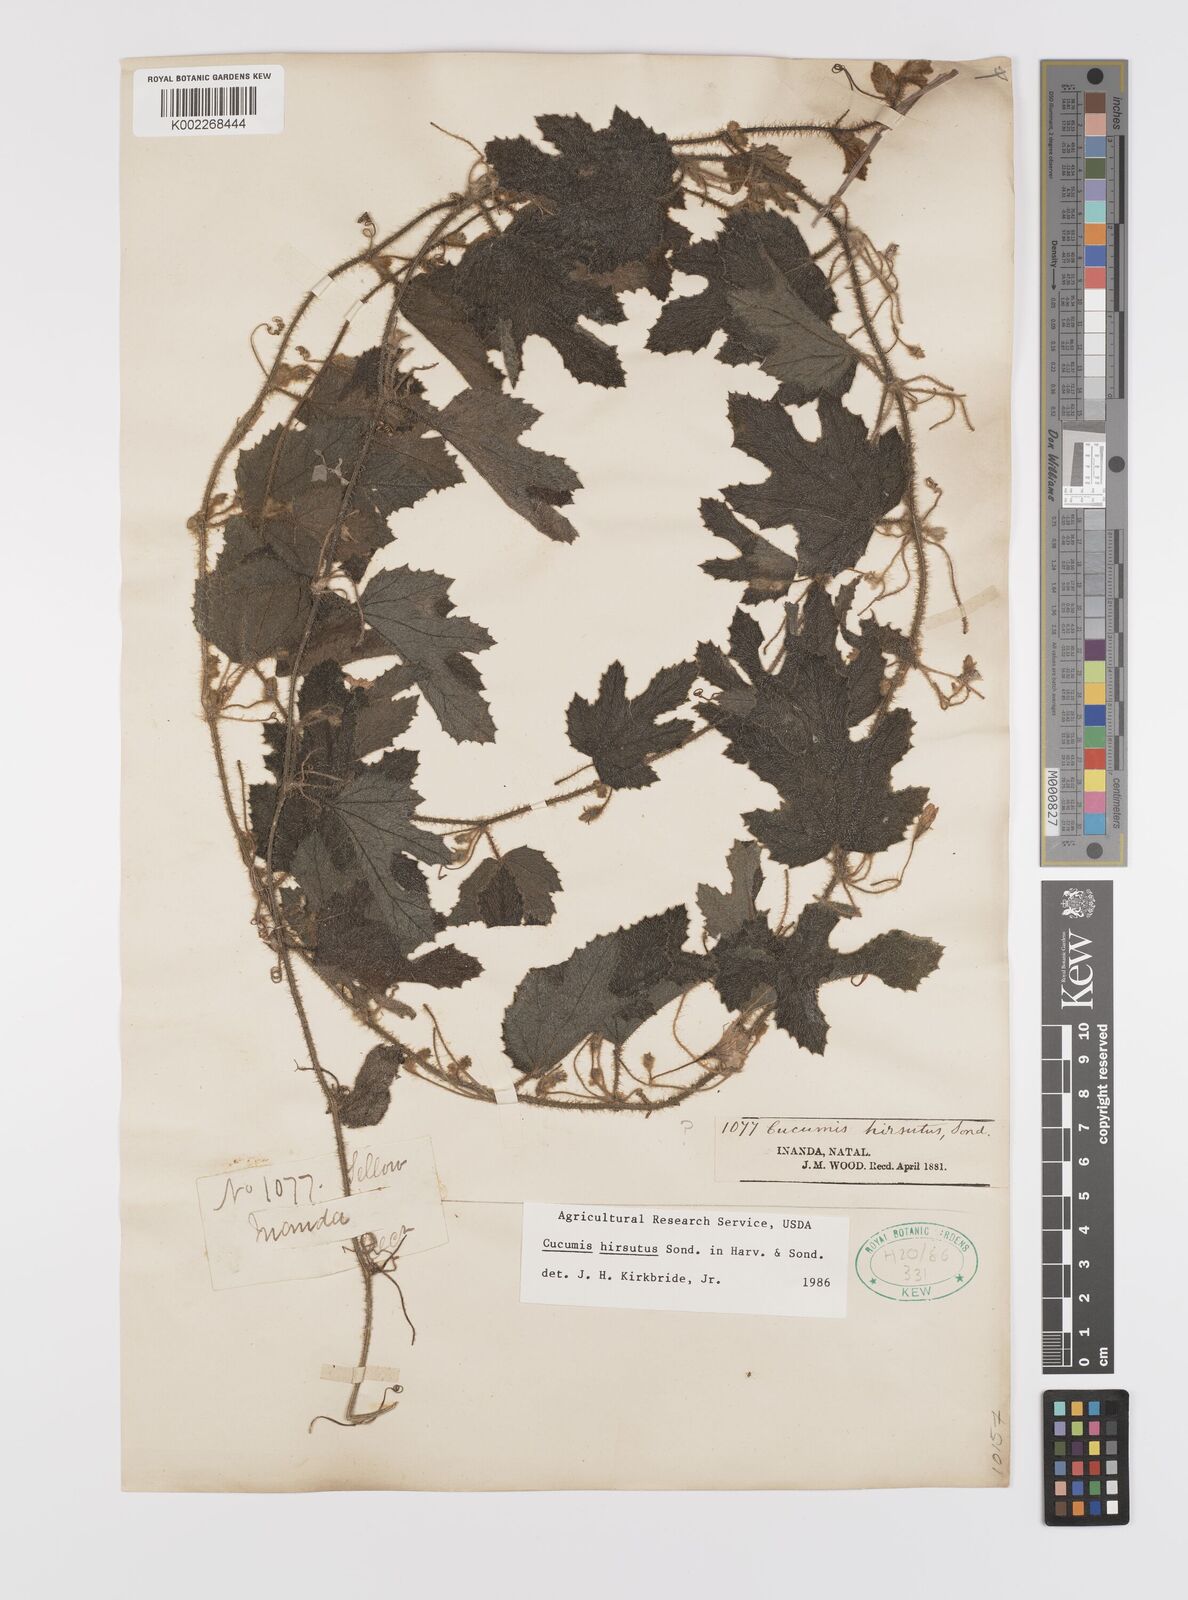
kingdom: Plantae
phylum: Tracheophyta
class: Magnoliopsida
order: Cucurbitales
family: Cucurbitaceae
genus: Cucumis
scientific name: Cucumis hirsutus
